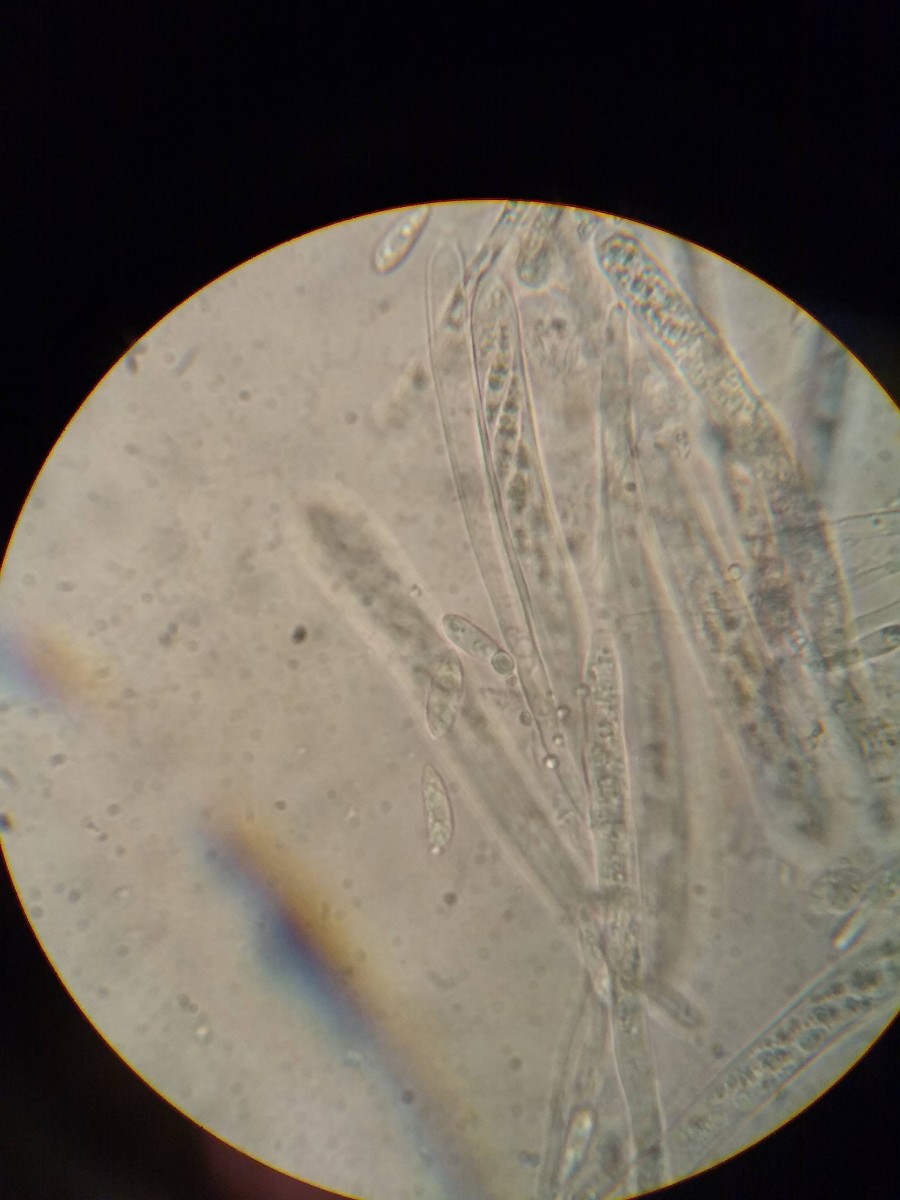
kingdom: Fungi
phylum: Ascomycota
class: Leotiomycetes
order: Helotiales
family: Helotiaceae
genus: Hymenoscyphus
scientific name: Hymenoscyphus rokebyensis
